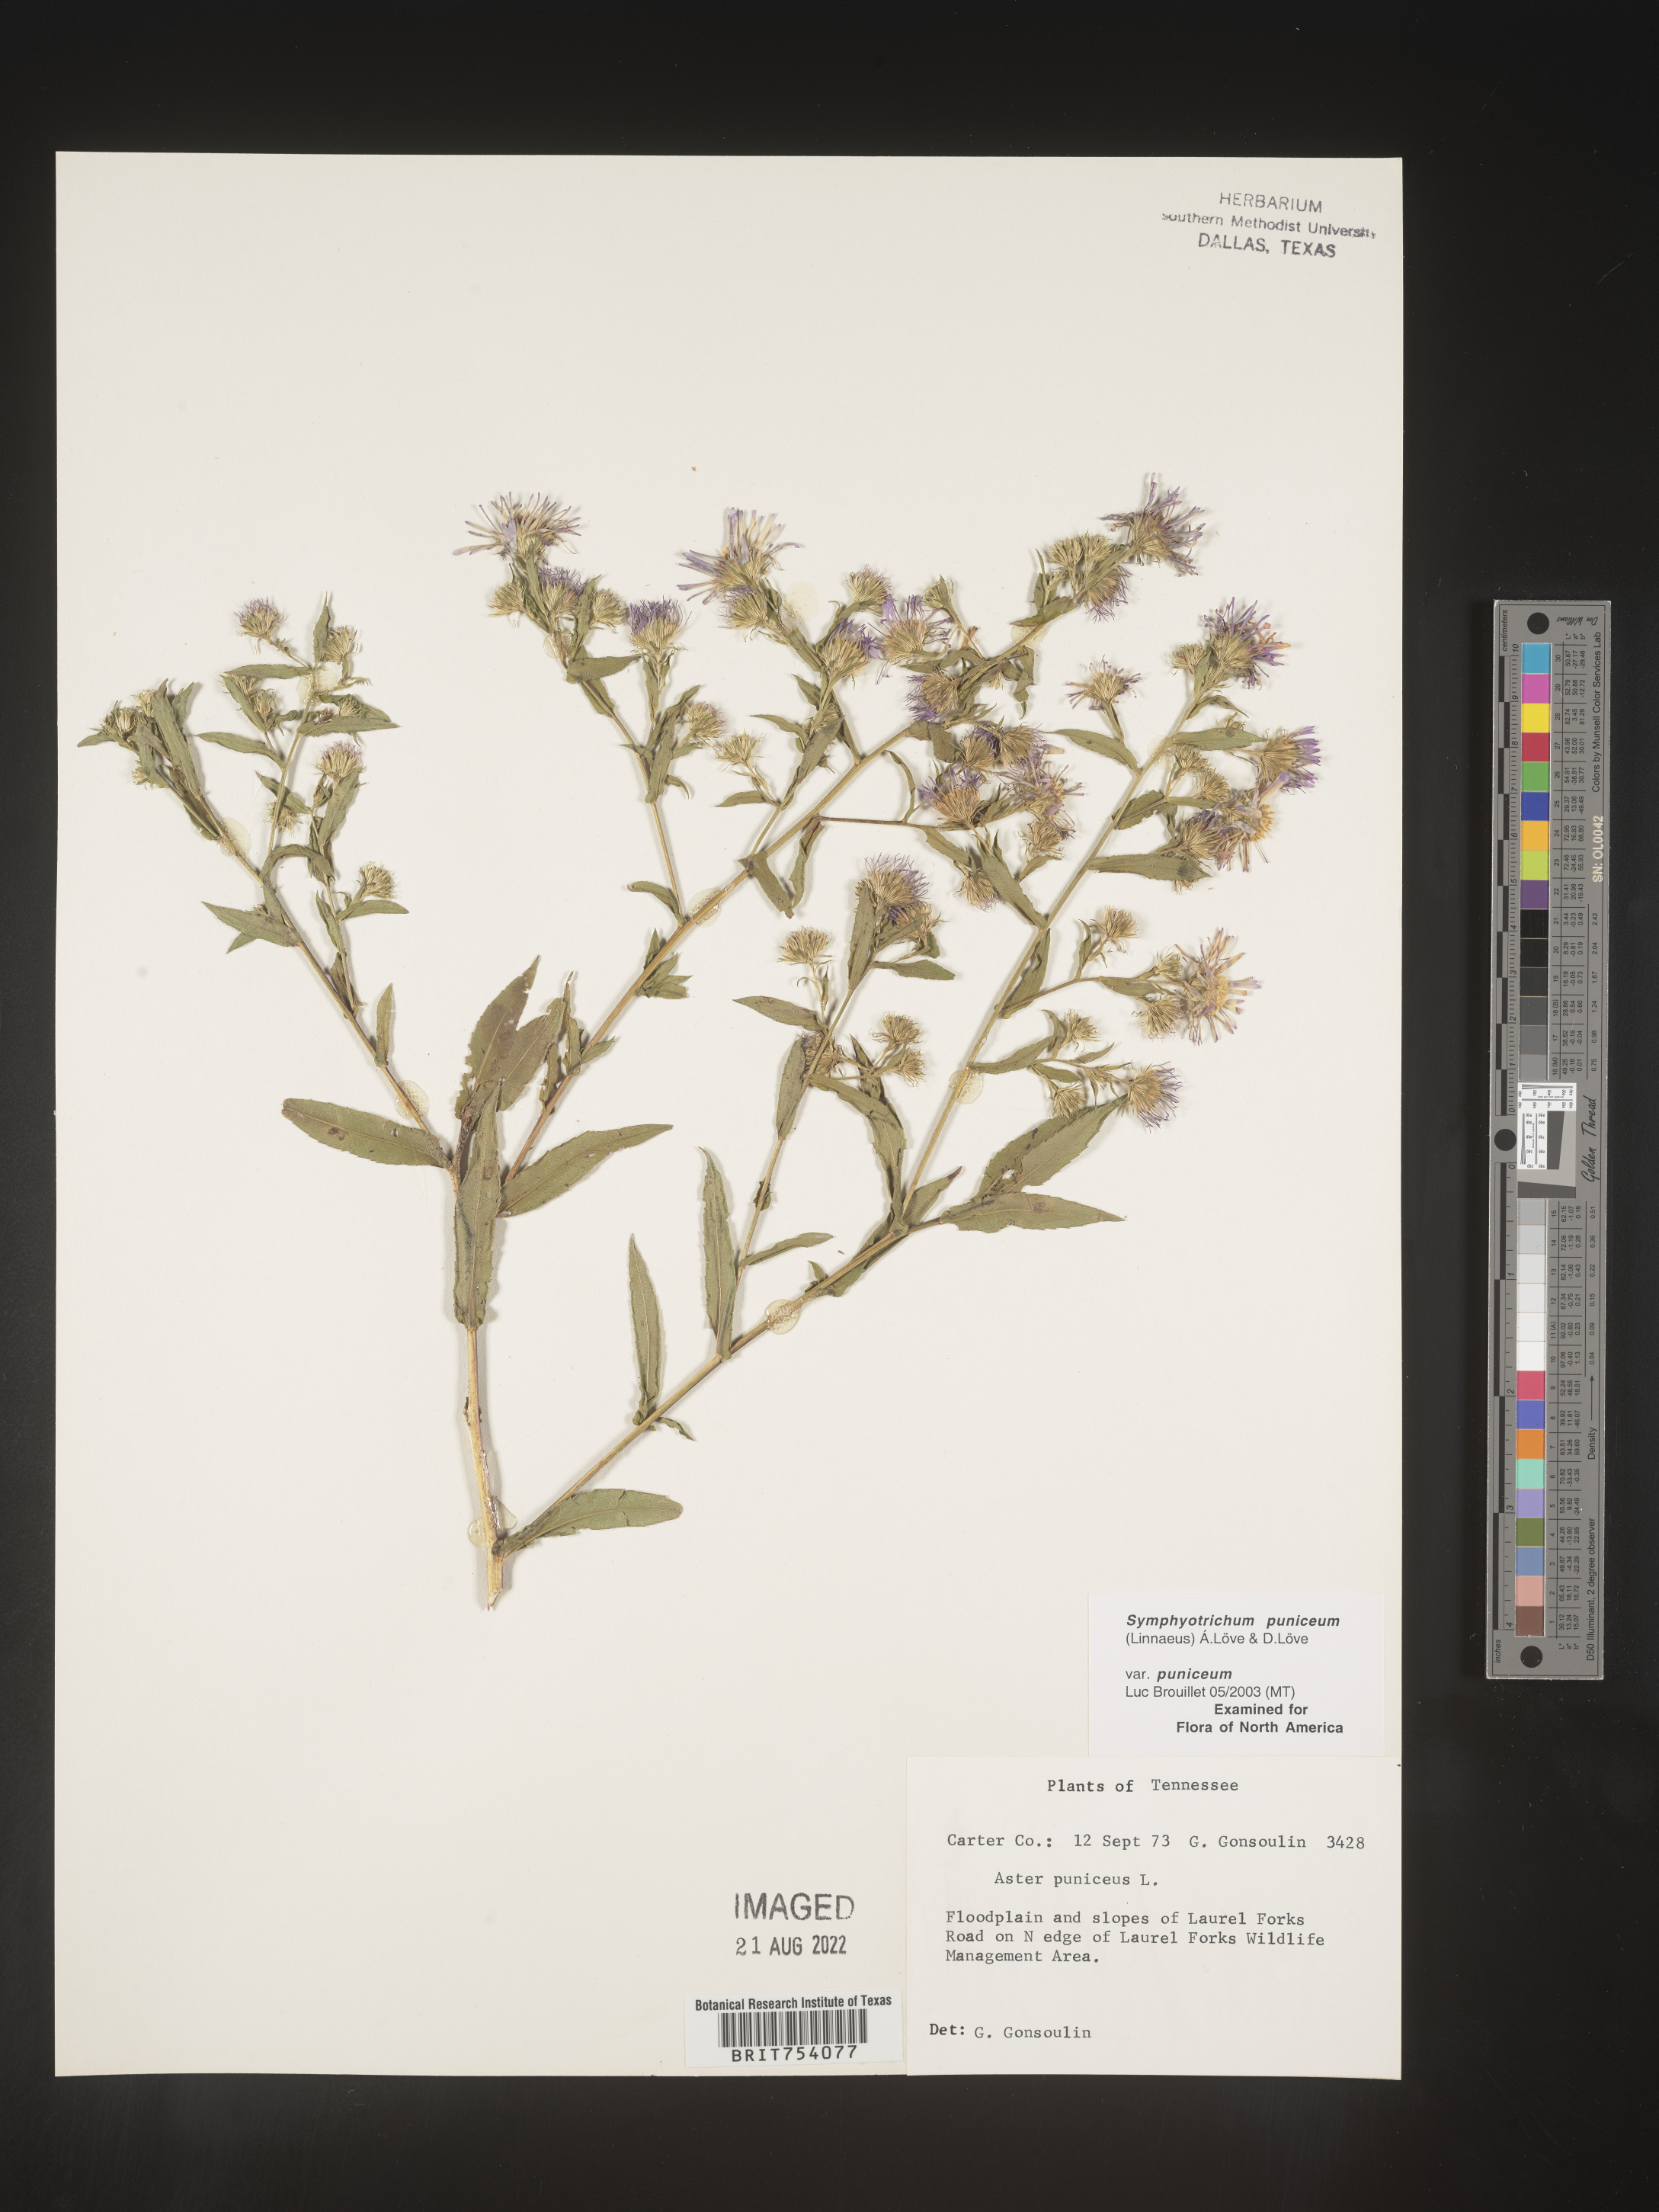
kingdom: Plantae
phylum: Tracheophyta
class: Magnoliopsida
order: Asterales
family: Asteraceae
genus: Symphyotrichum
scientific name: Symphyotrichum puniceum
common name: Bog aster
